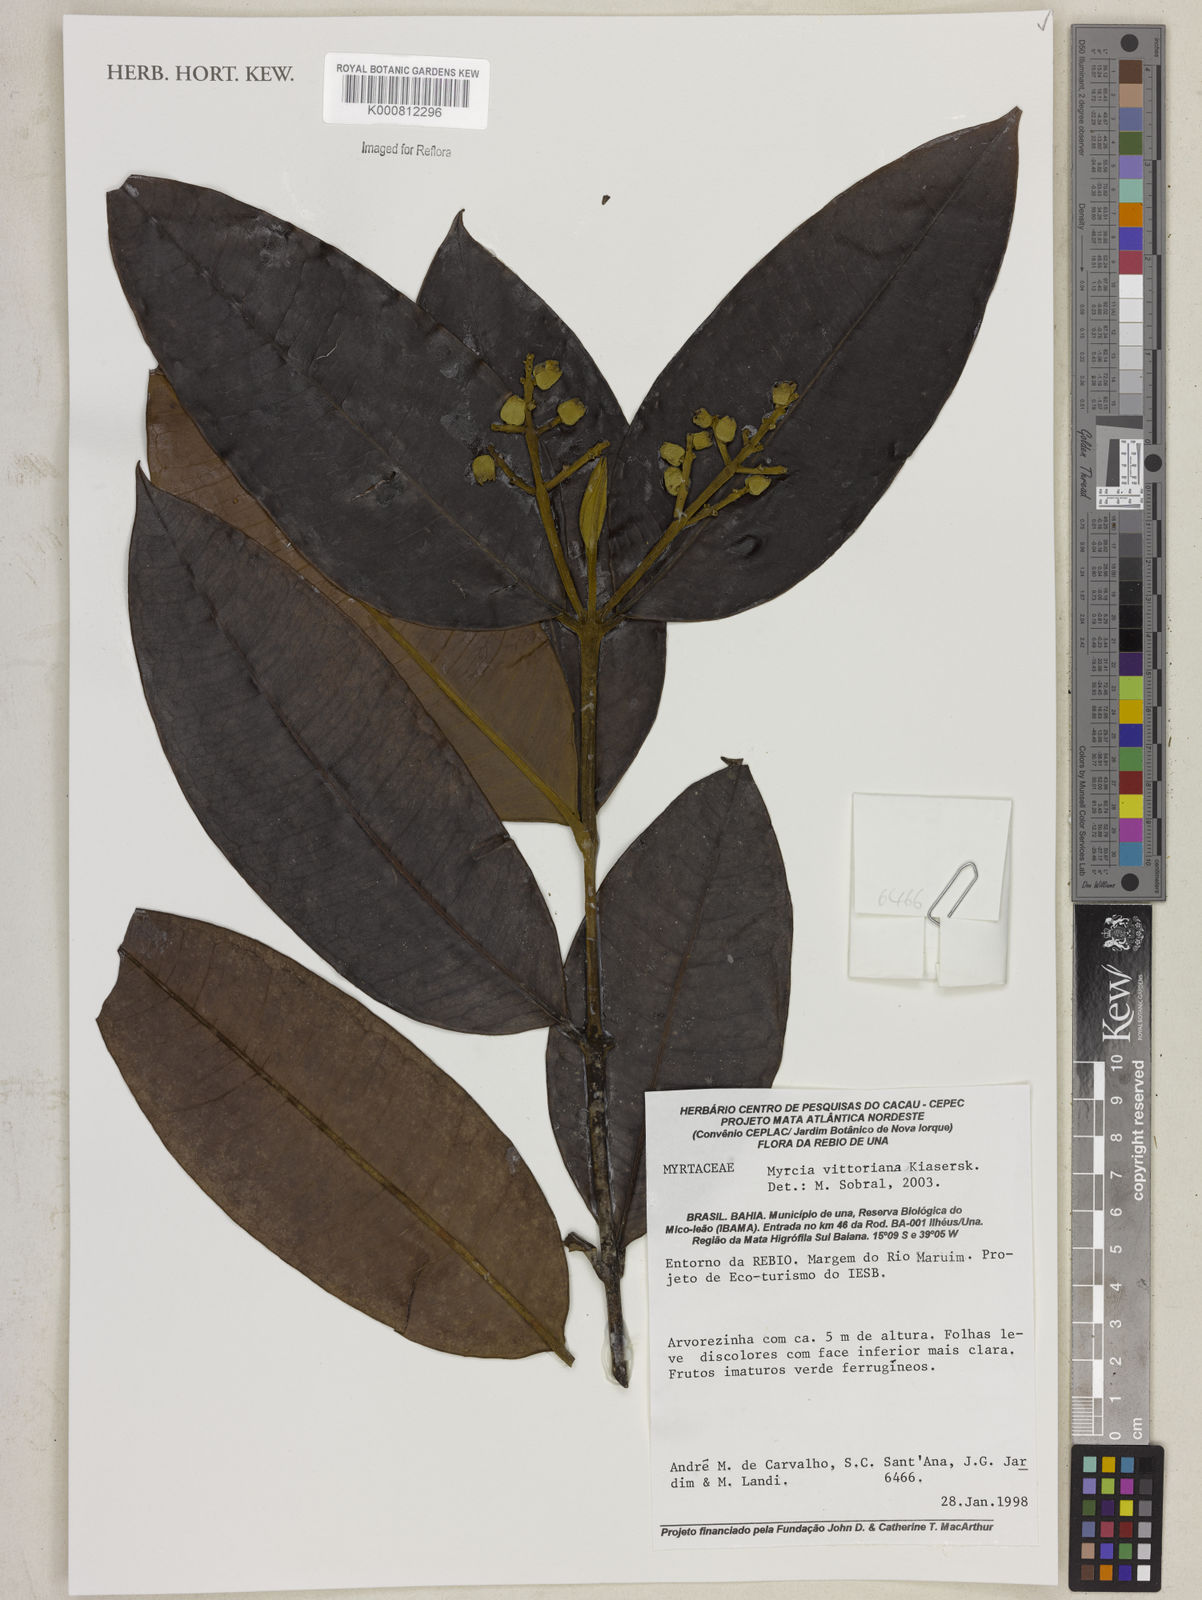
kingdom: Plantae
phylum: Tracheophyta
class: Magnoliopsida
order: Myrtales
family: Myrtaceae
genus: Myrcia
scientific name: Myrcia vittoriana
